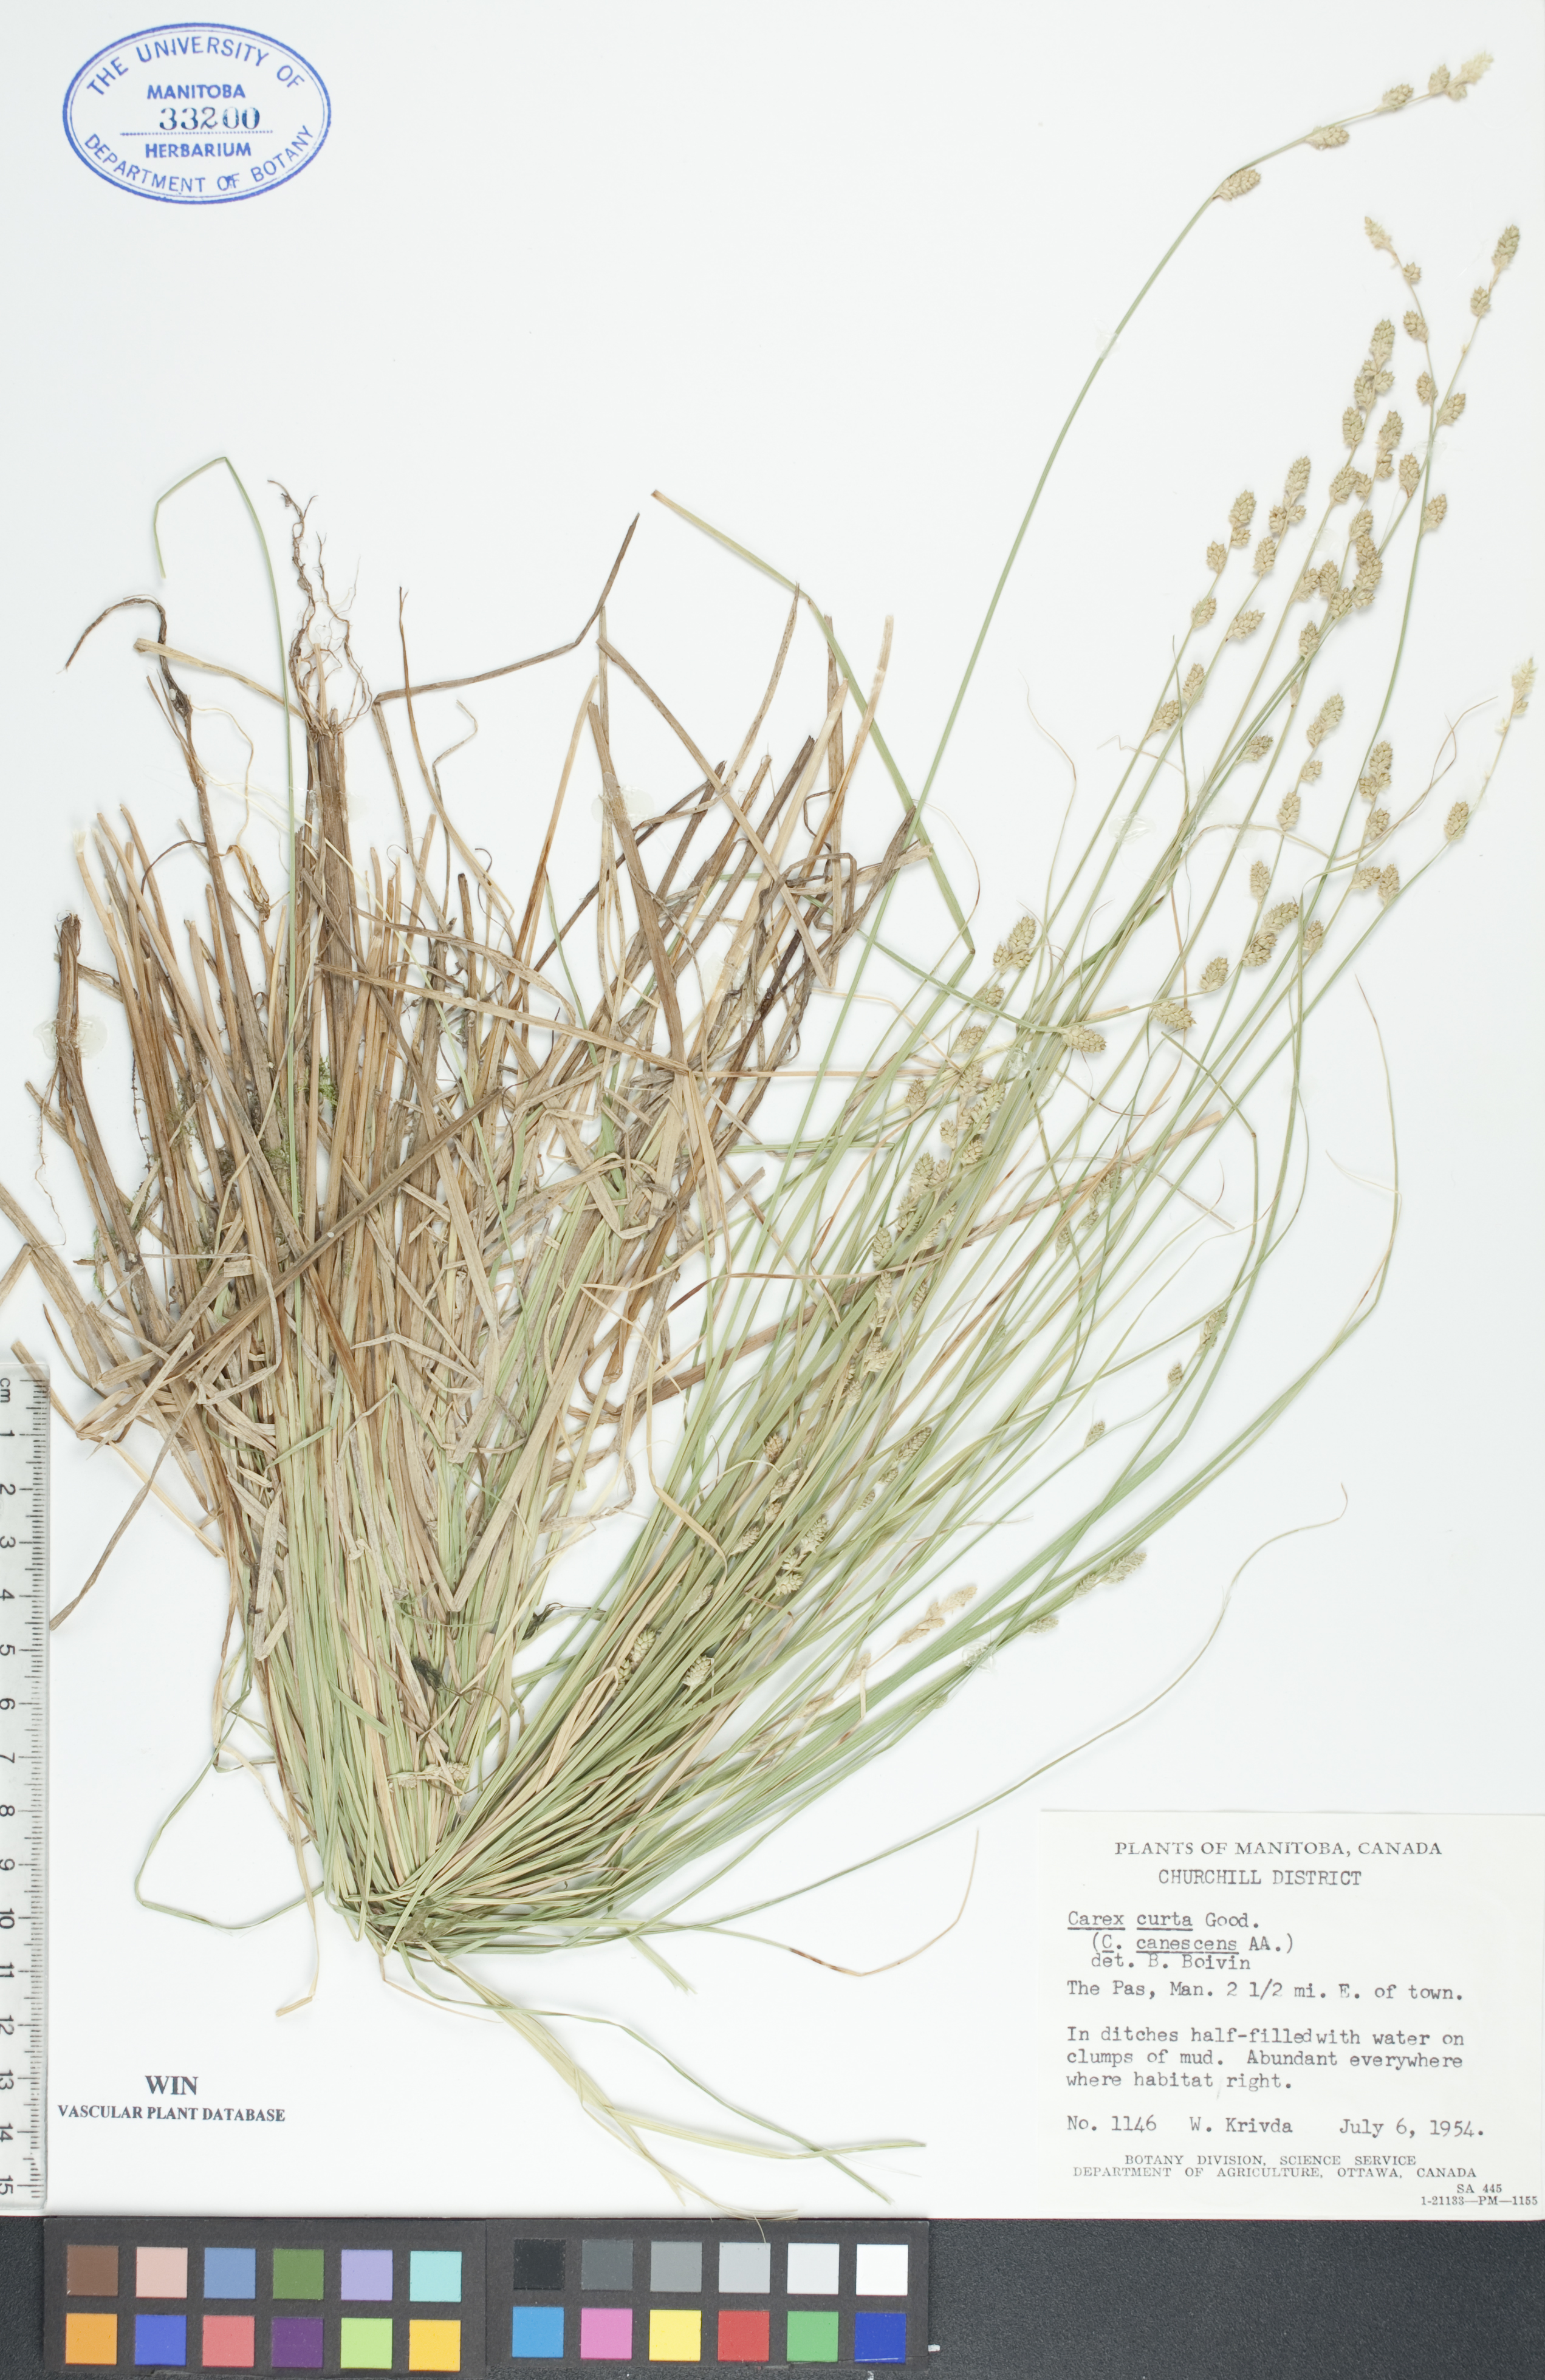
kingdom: Plantae
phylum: Tracheophyta
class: Liliopsida
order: Poales
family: Cyperaceae
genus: Carex
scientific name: Carex canescens
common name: White sedge
